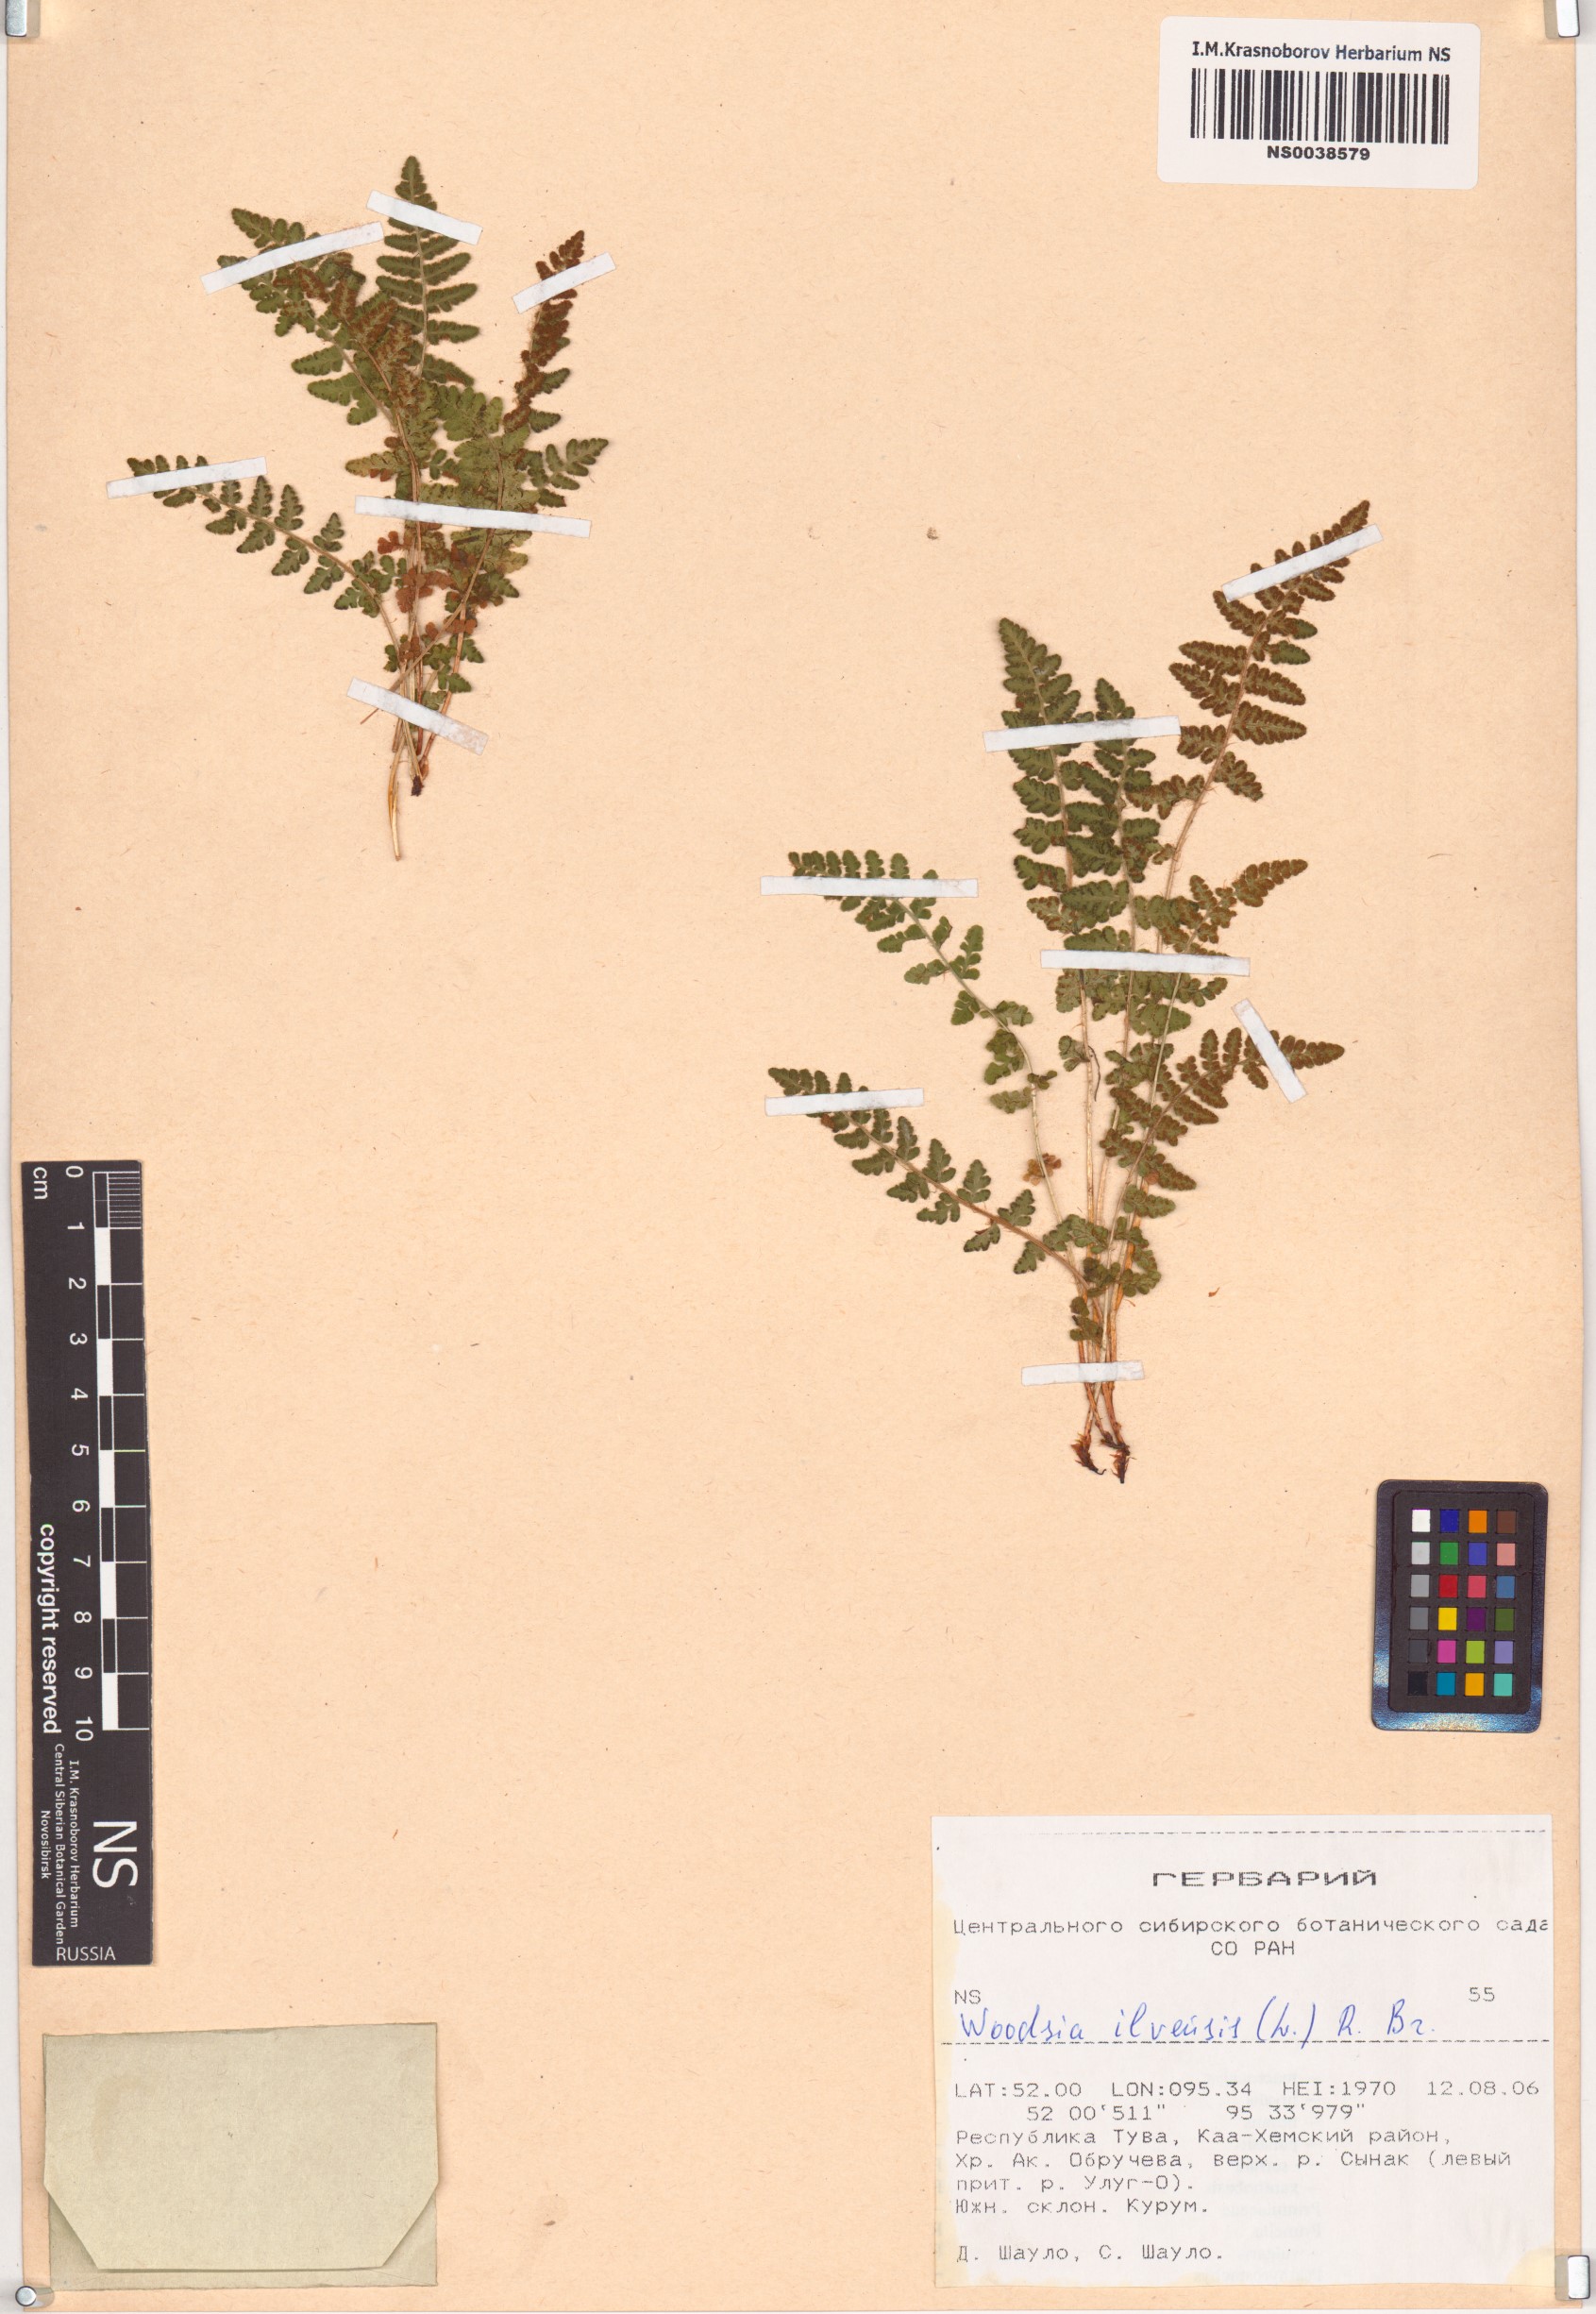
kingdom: Plantae
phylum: Tracheophyta
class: Polypodiopsida
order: Polypodiales
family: Woodsiaceae
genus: Woodsia
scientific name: Woodsia ilvensis
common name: Fragrant woodsia
